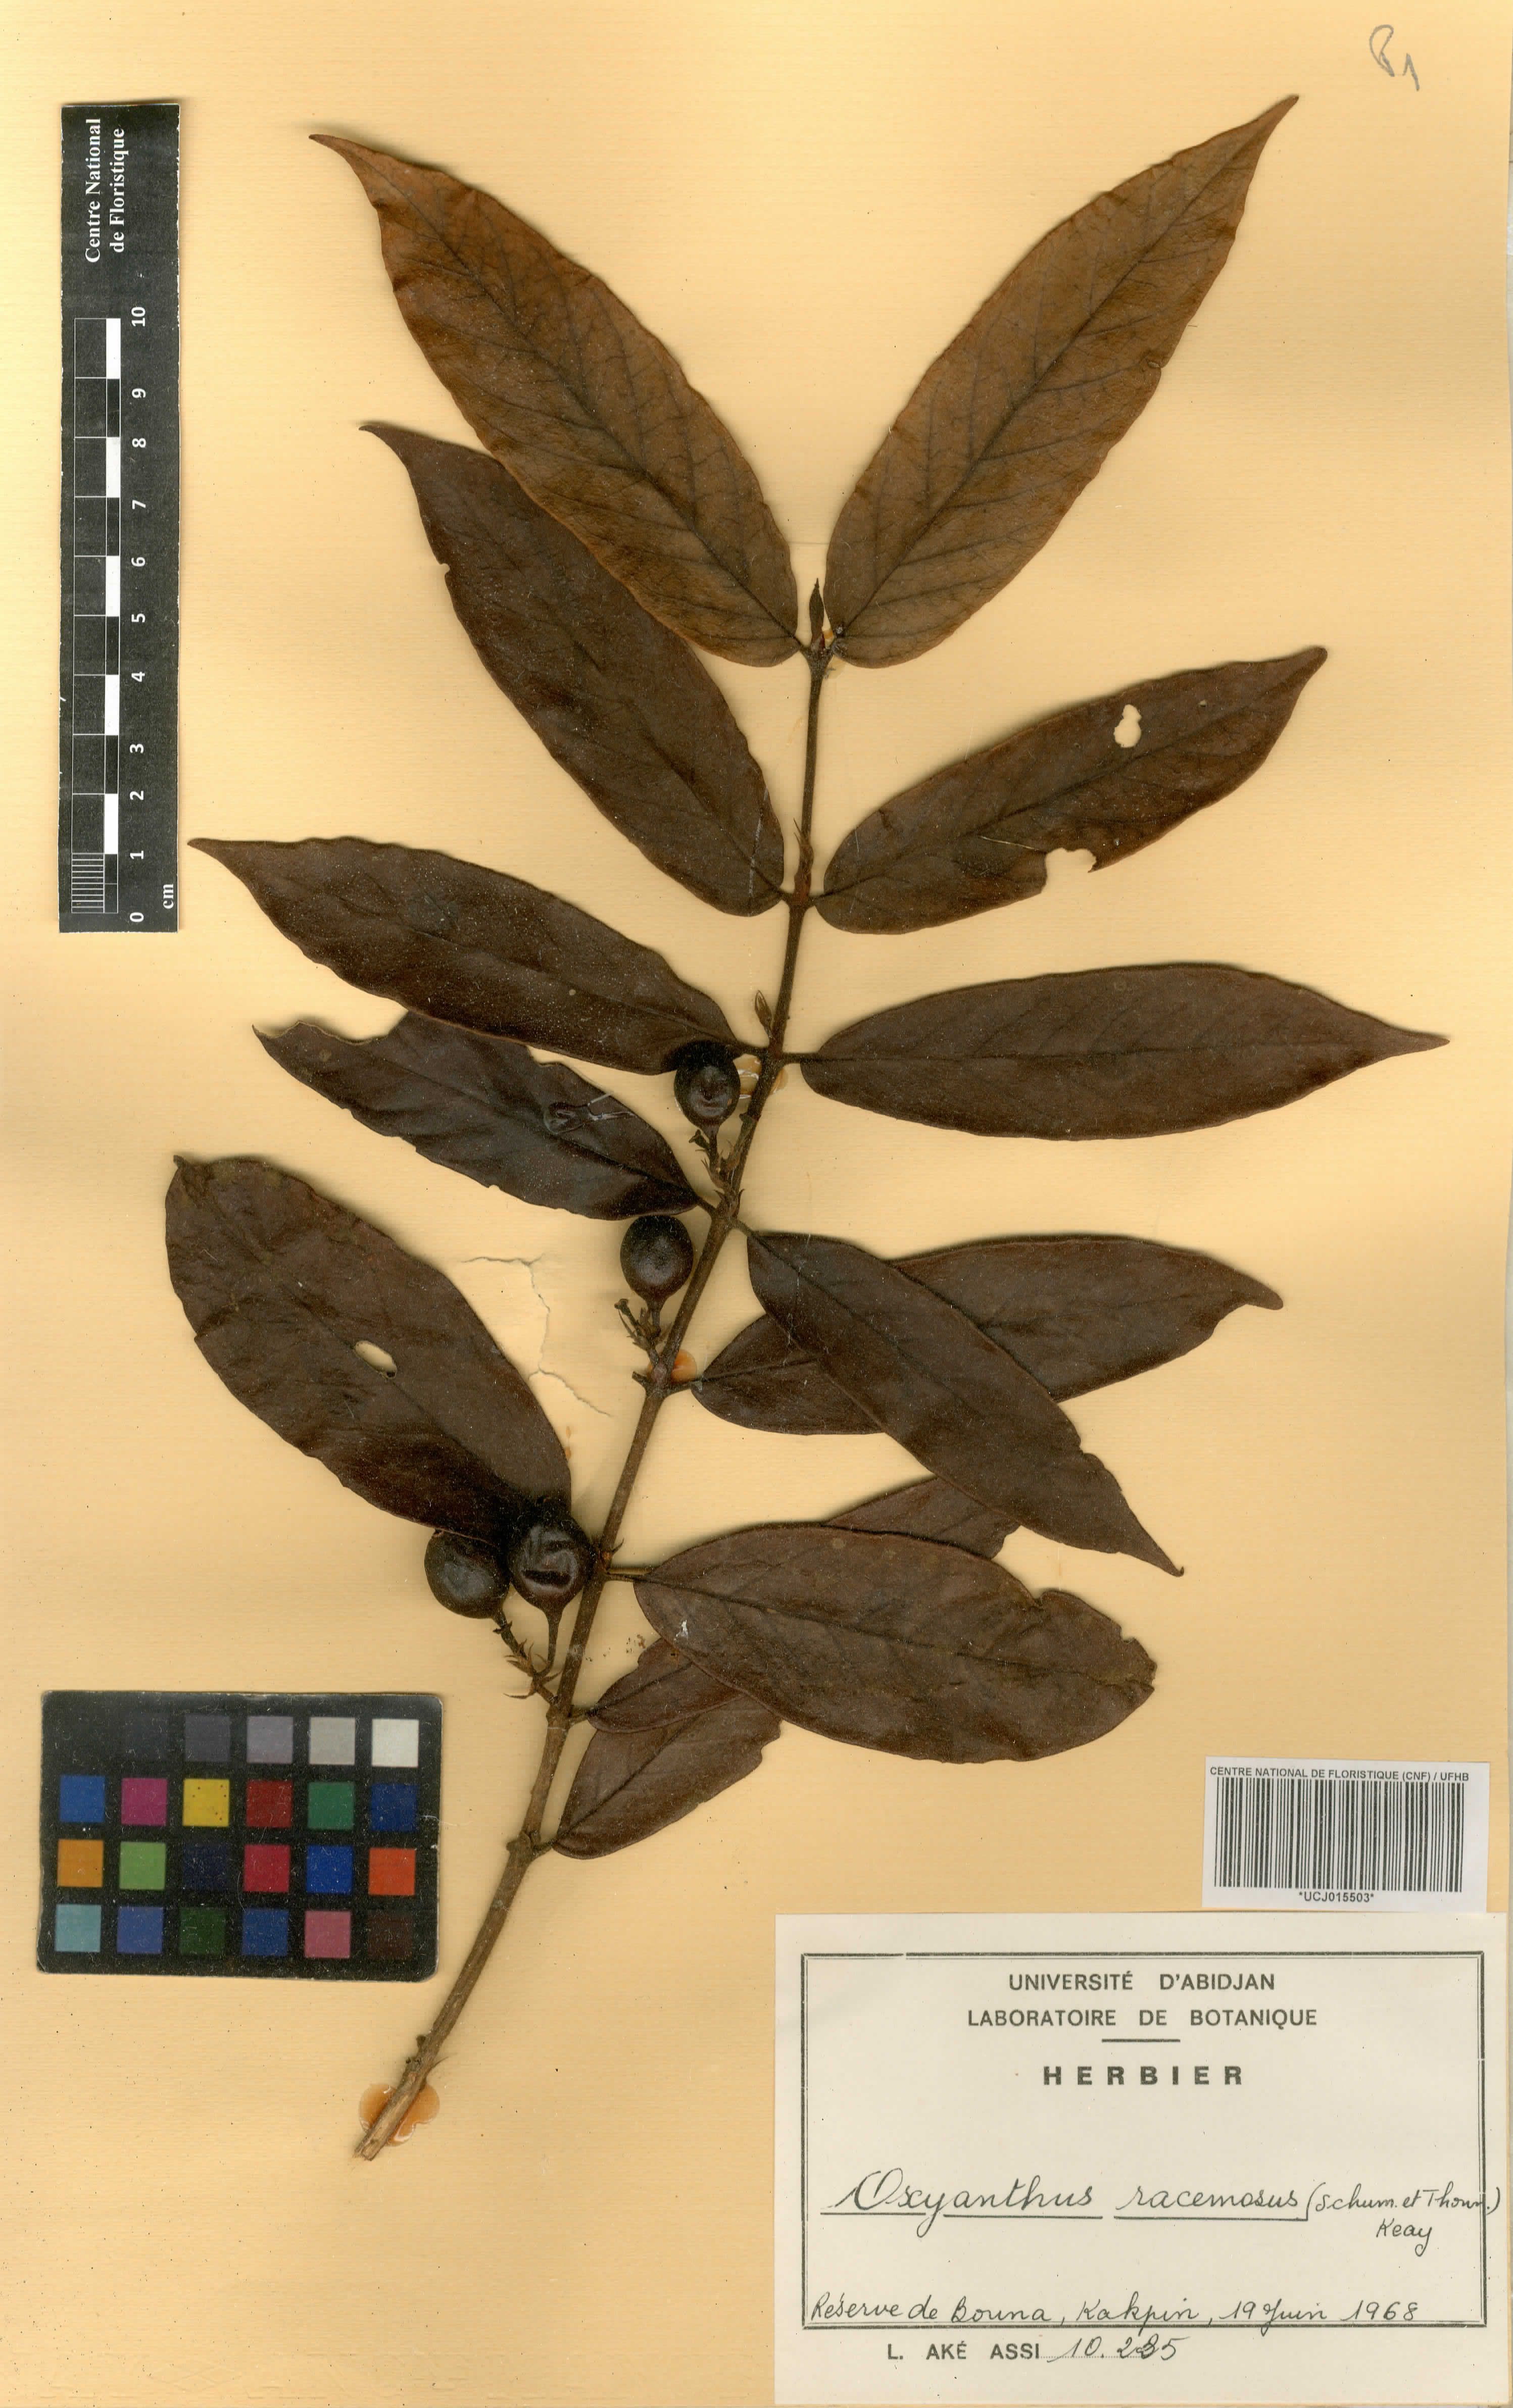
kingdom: Plantae
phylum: Tracheophyta
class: Magnoliopsida
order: Gentianales
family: Rubiaceae
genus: Oxyanthus
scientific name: Oxyanthus racemosus
